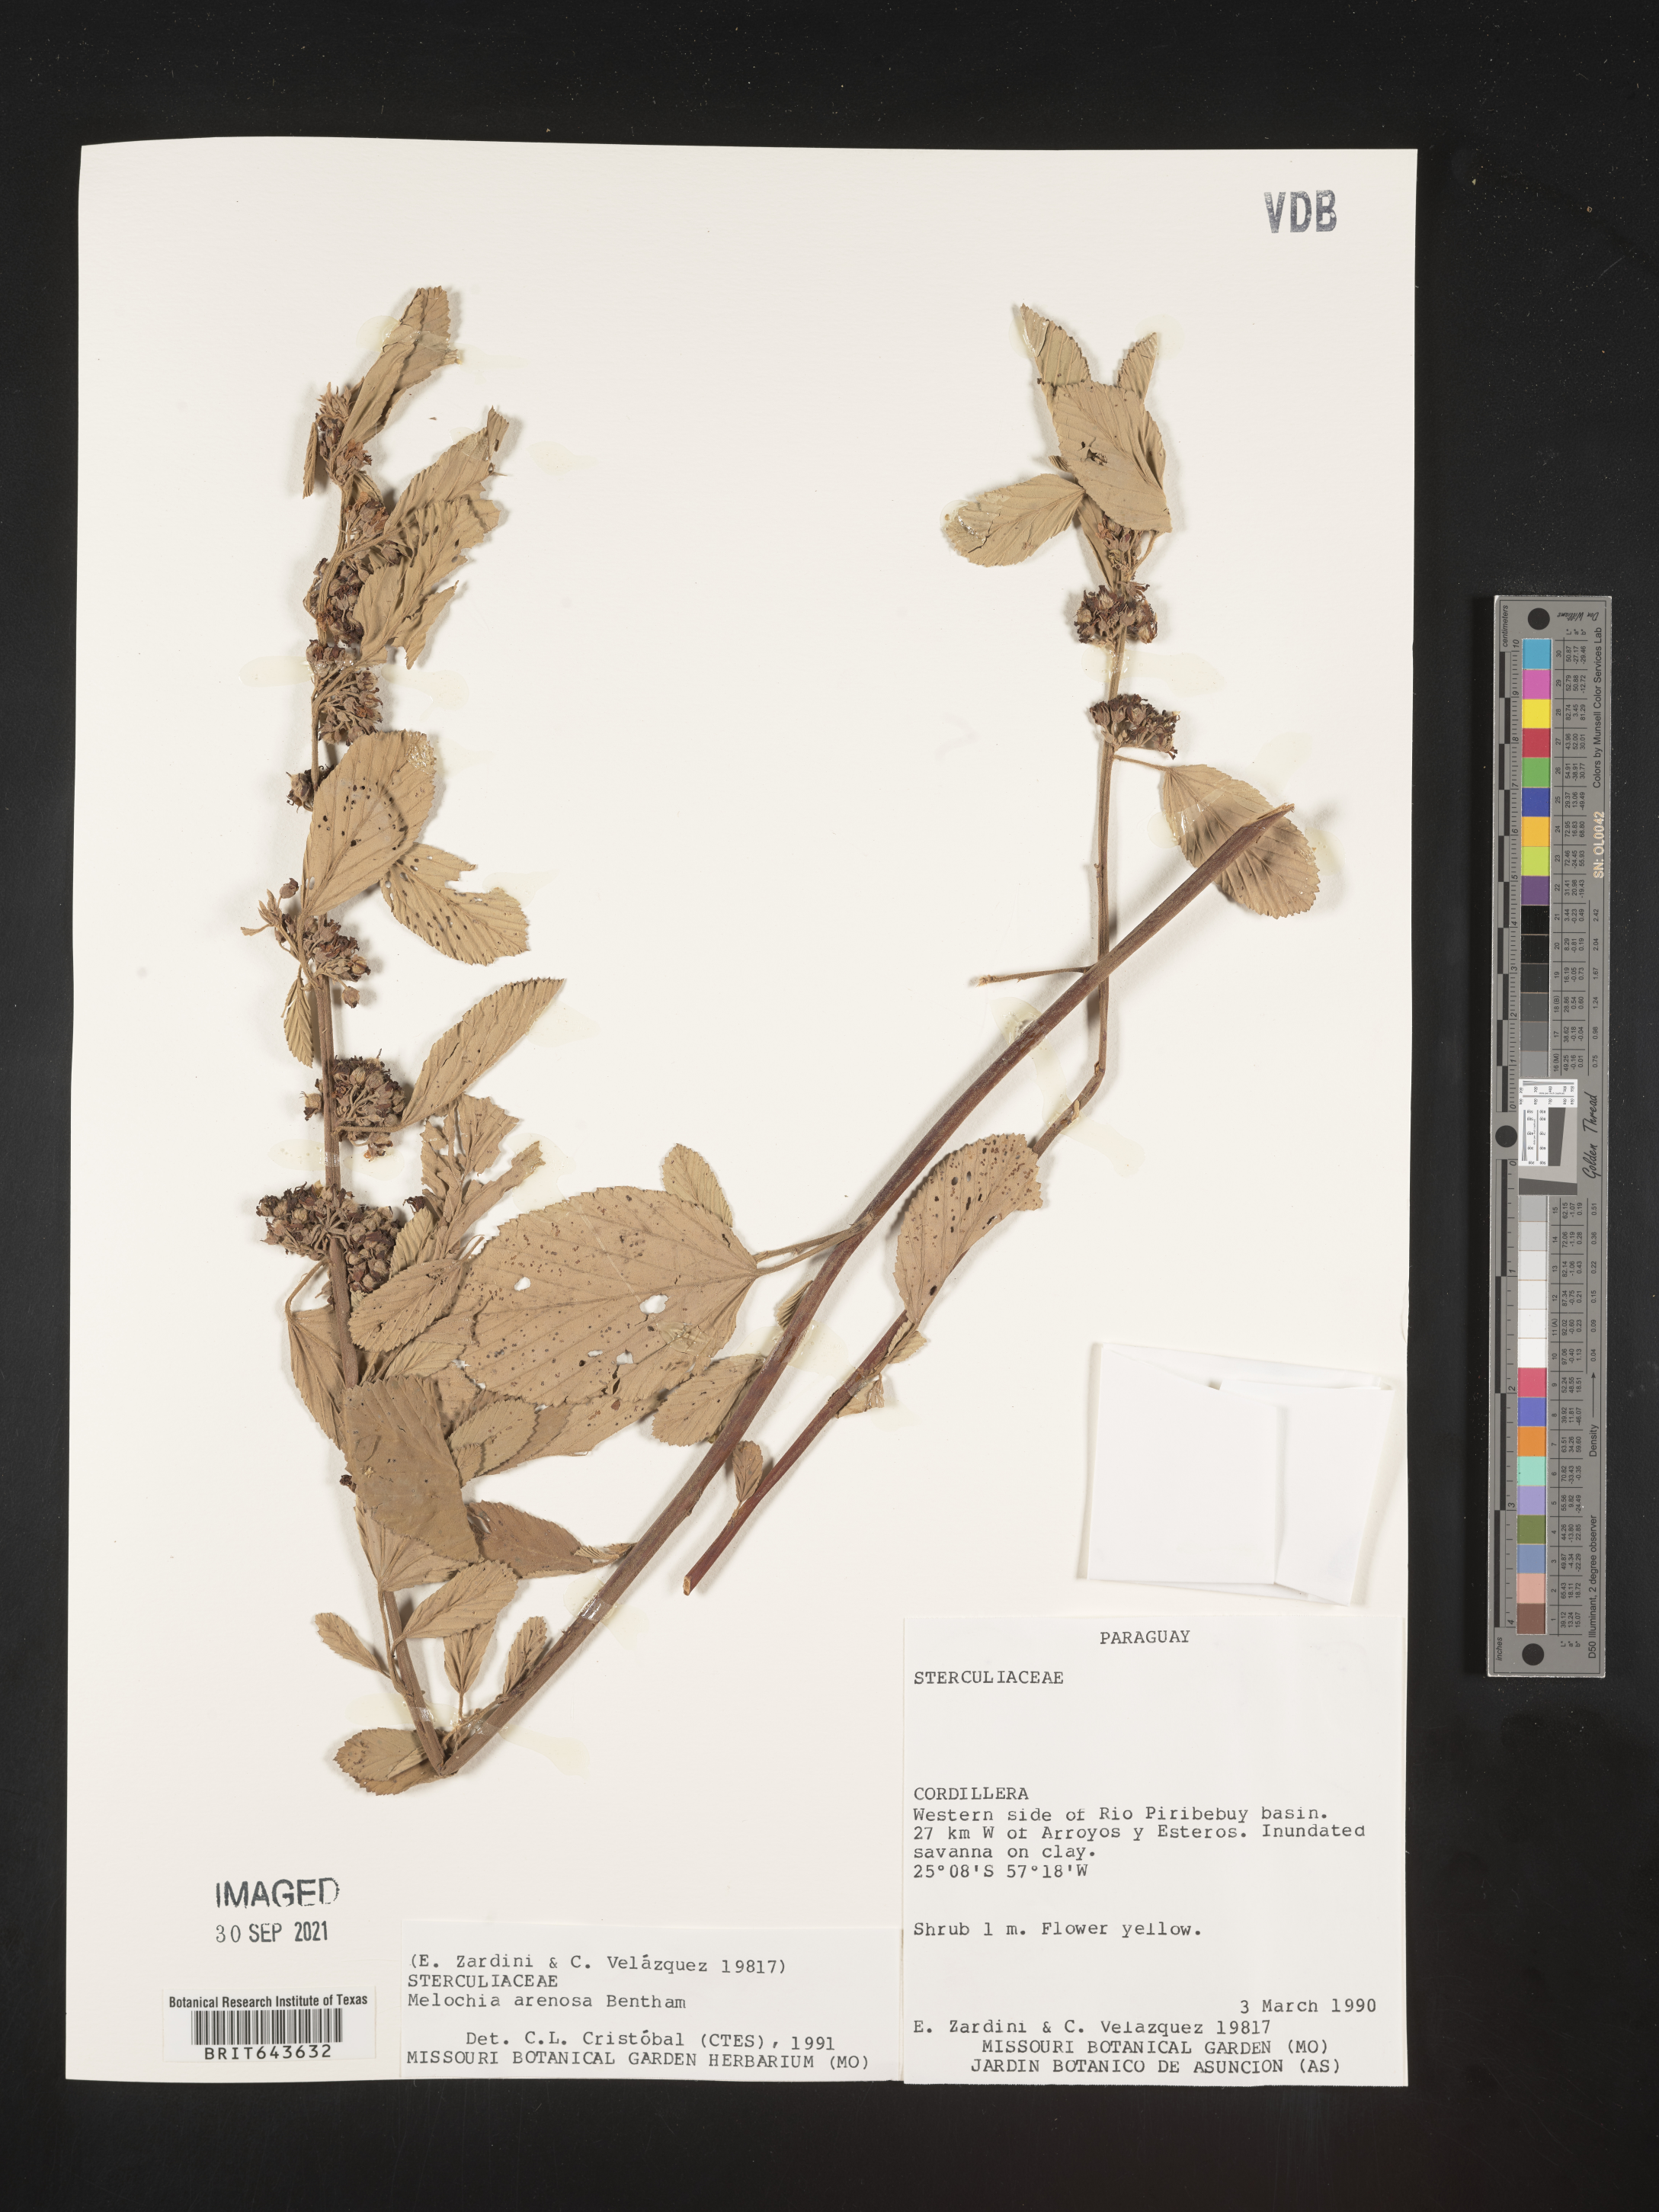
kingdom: Plantae
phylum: Tracheophyta
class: Magnoliopsida
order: Malvales
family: Malvaceae
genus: Melochia
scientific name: Melochia
